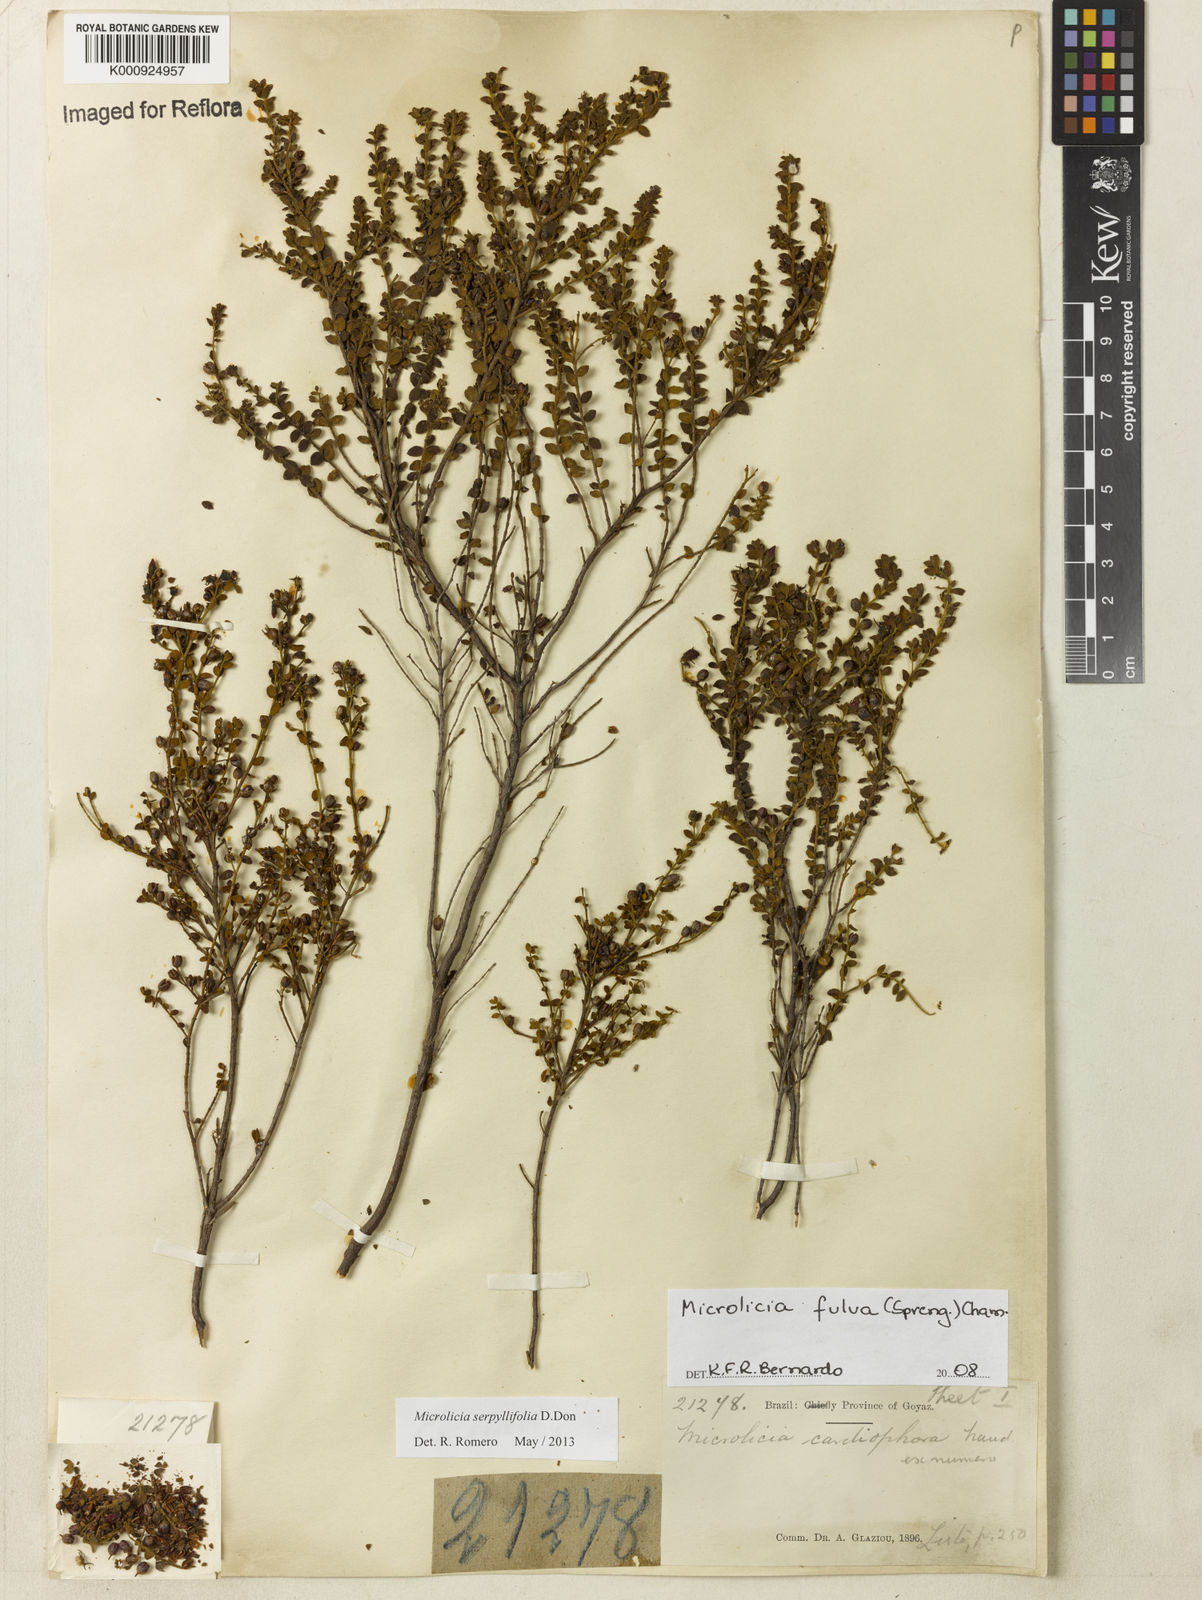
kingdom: Plantae
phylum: Tracheophyta
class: Magnoliopsida
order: Myrtales
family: Melastomataceae
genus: Microlicia
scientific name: Microlicia fulva
